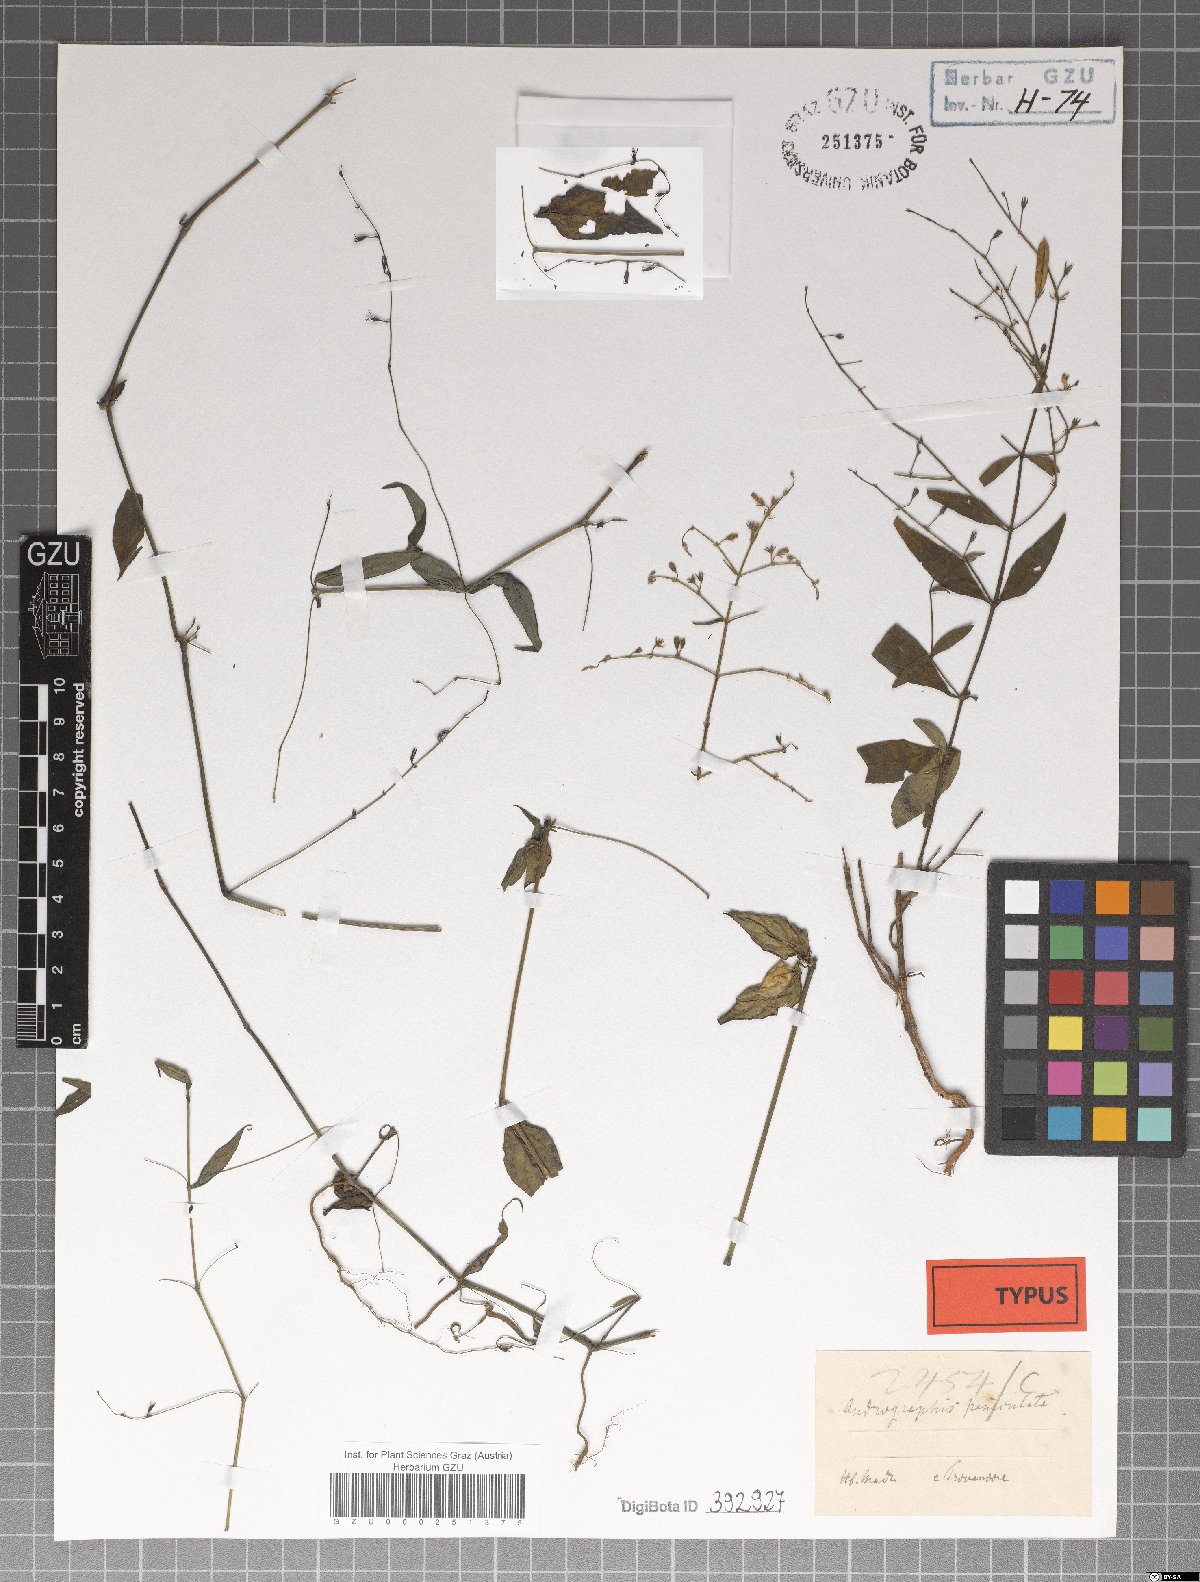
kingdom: Plantae
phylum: Tracheophyta
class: Magnoliopsida
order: Lamiales
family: Acanthaceae
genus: Andrographis
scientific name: Andrographis paniculata
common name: Green chireta
